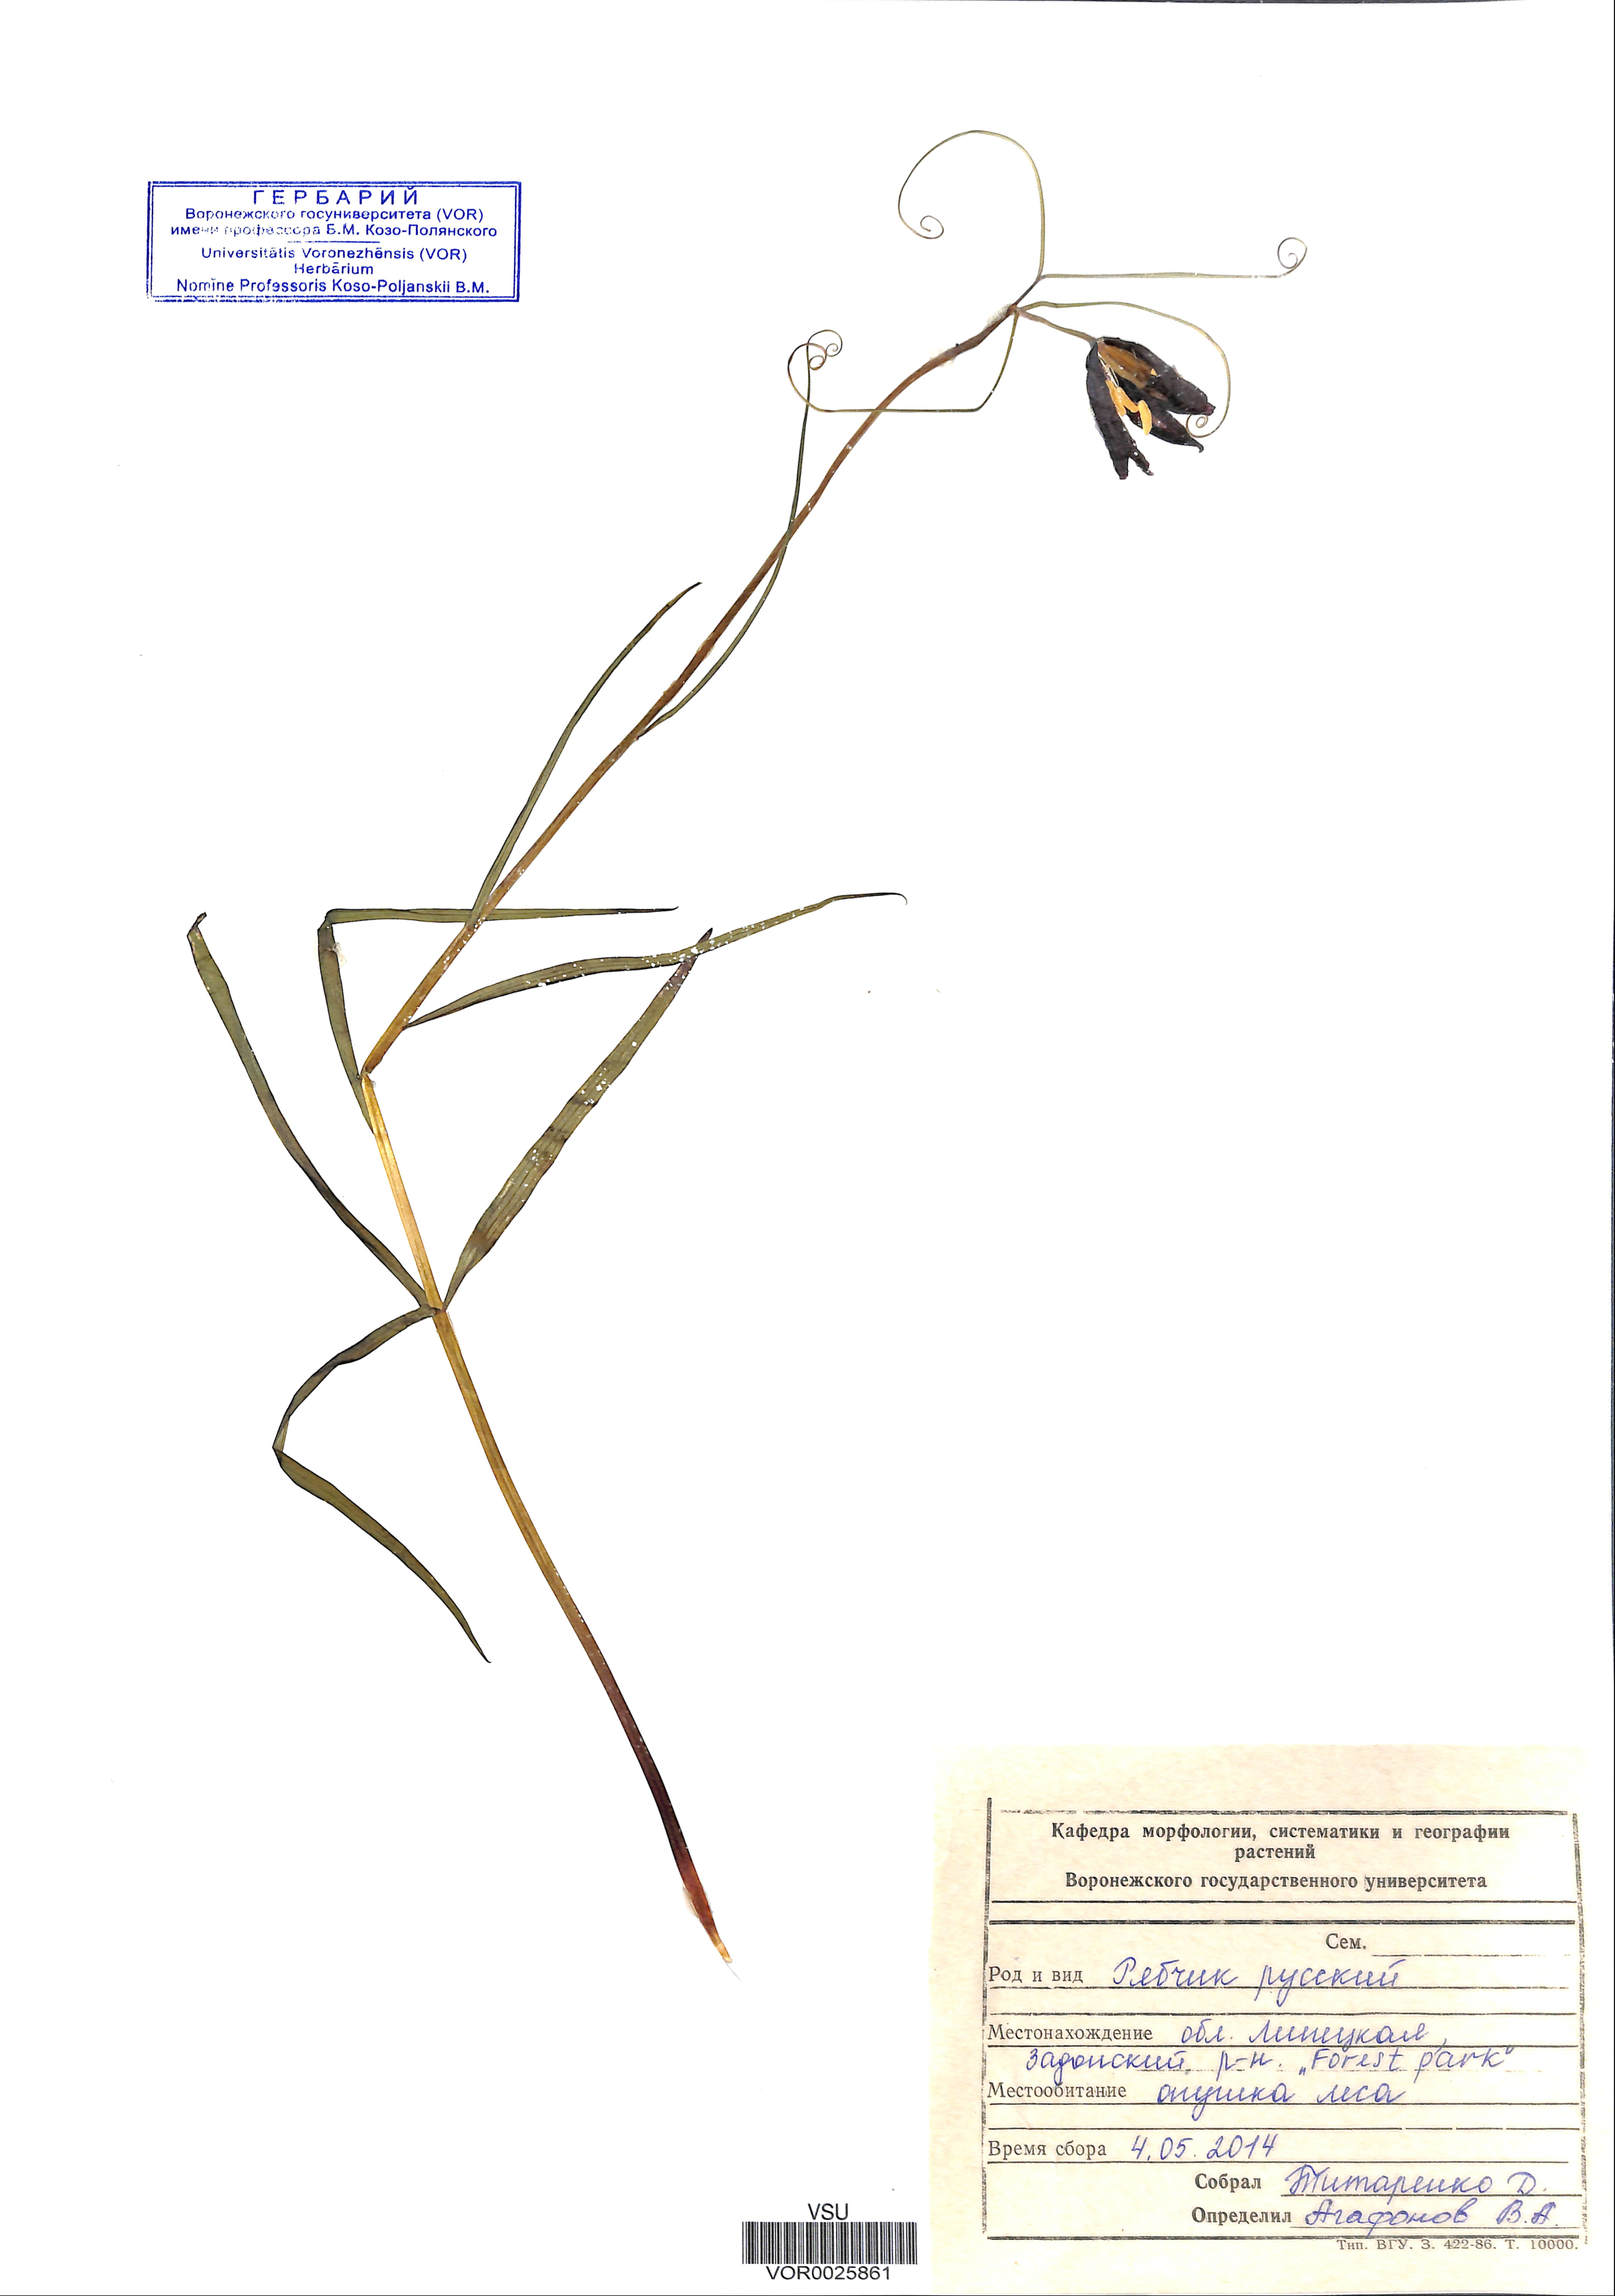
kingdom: Plantae
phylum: Tracheophyta
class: Liliopsida
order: Liliales
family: Liliaceae
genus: Fritillaria
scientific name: Fritillaria ruthenica
